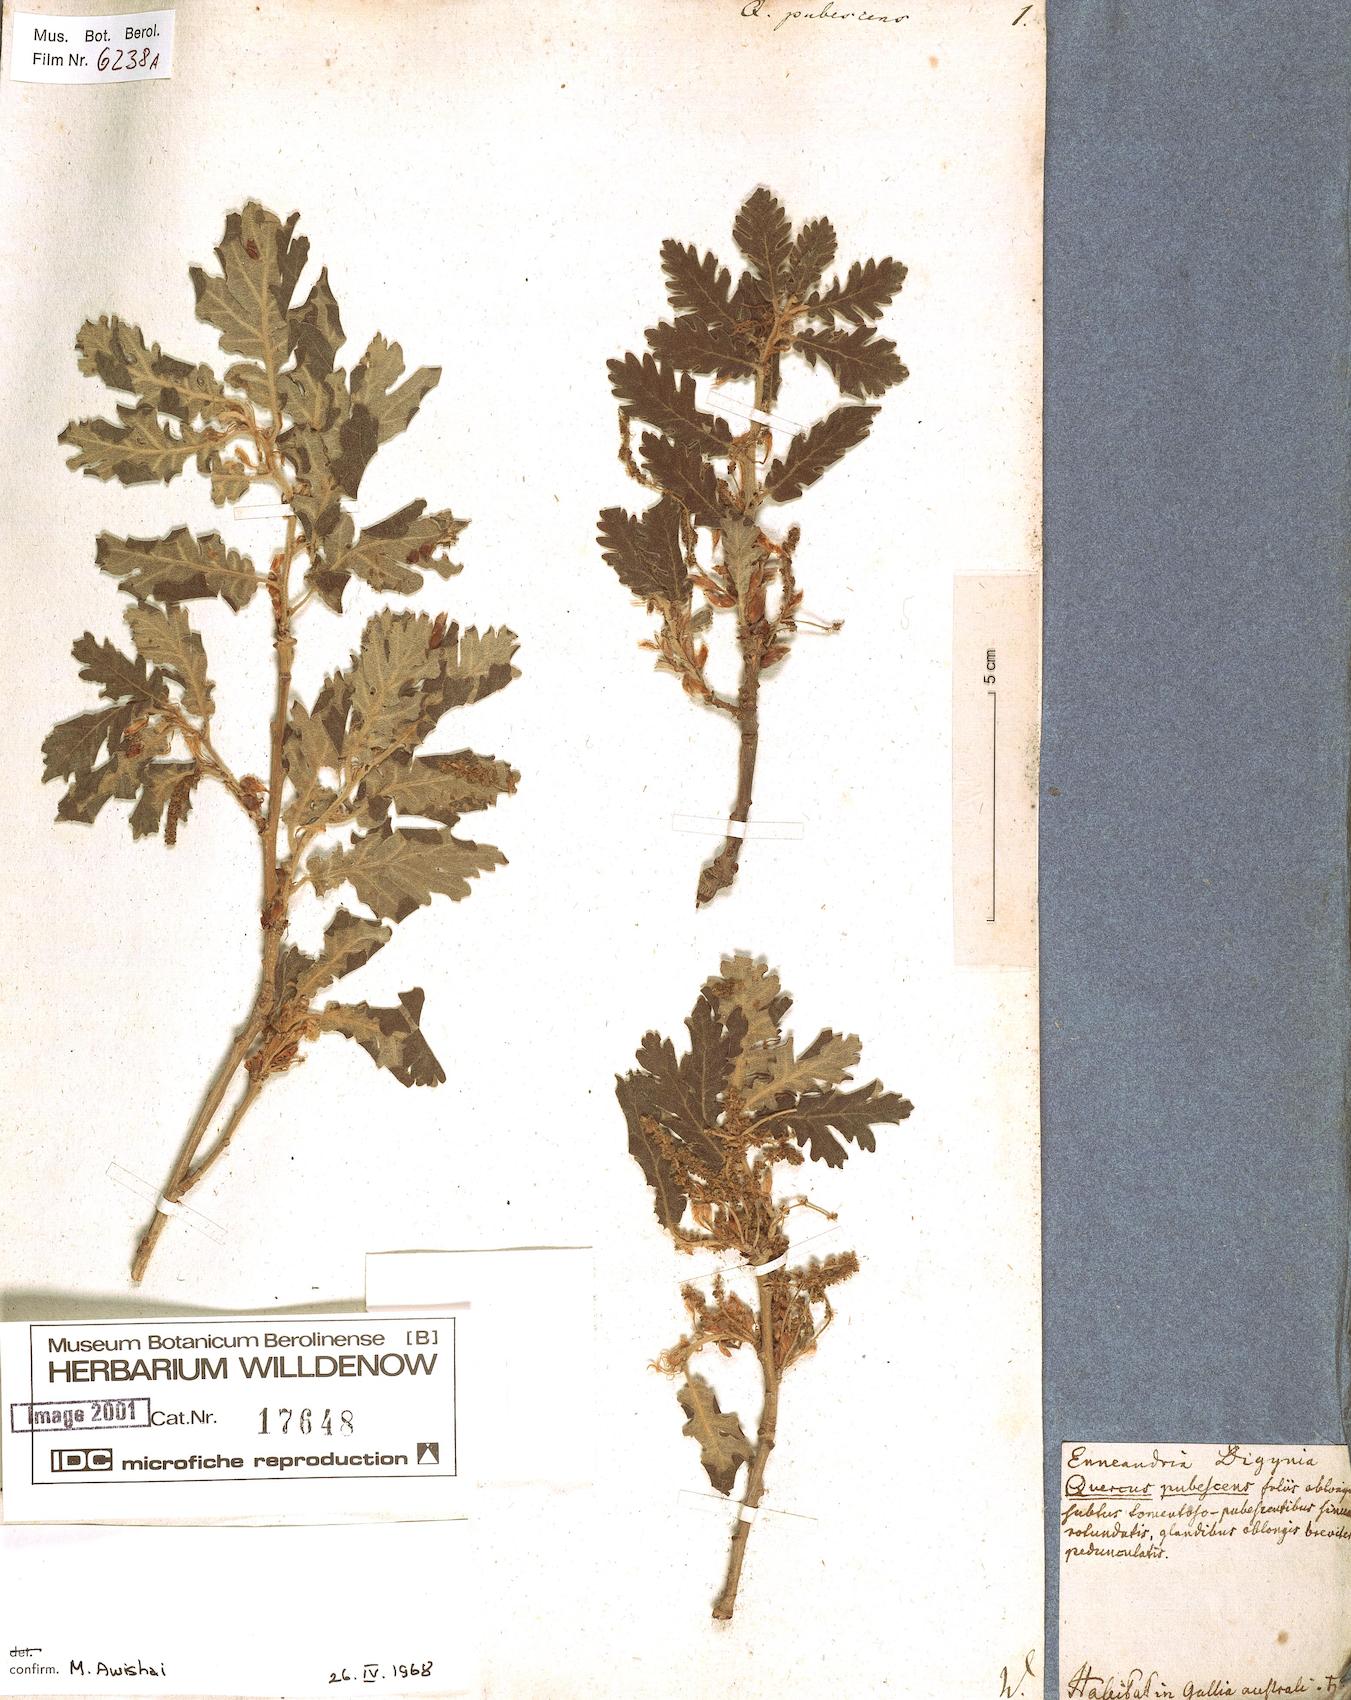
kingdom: Plantae
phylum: Tracheophyta
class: Magnoliopsida
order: Fagales
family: Fagaceae
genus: Quercus
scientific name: Quercus pubescens
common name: Downy oak
